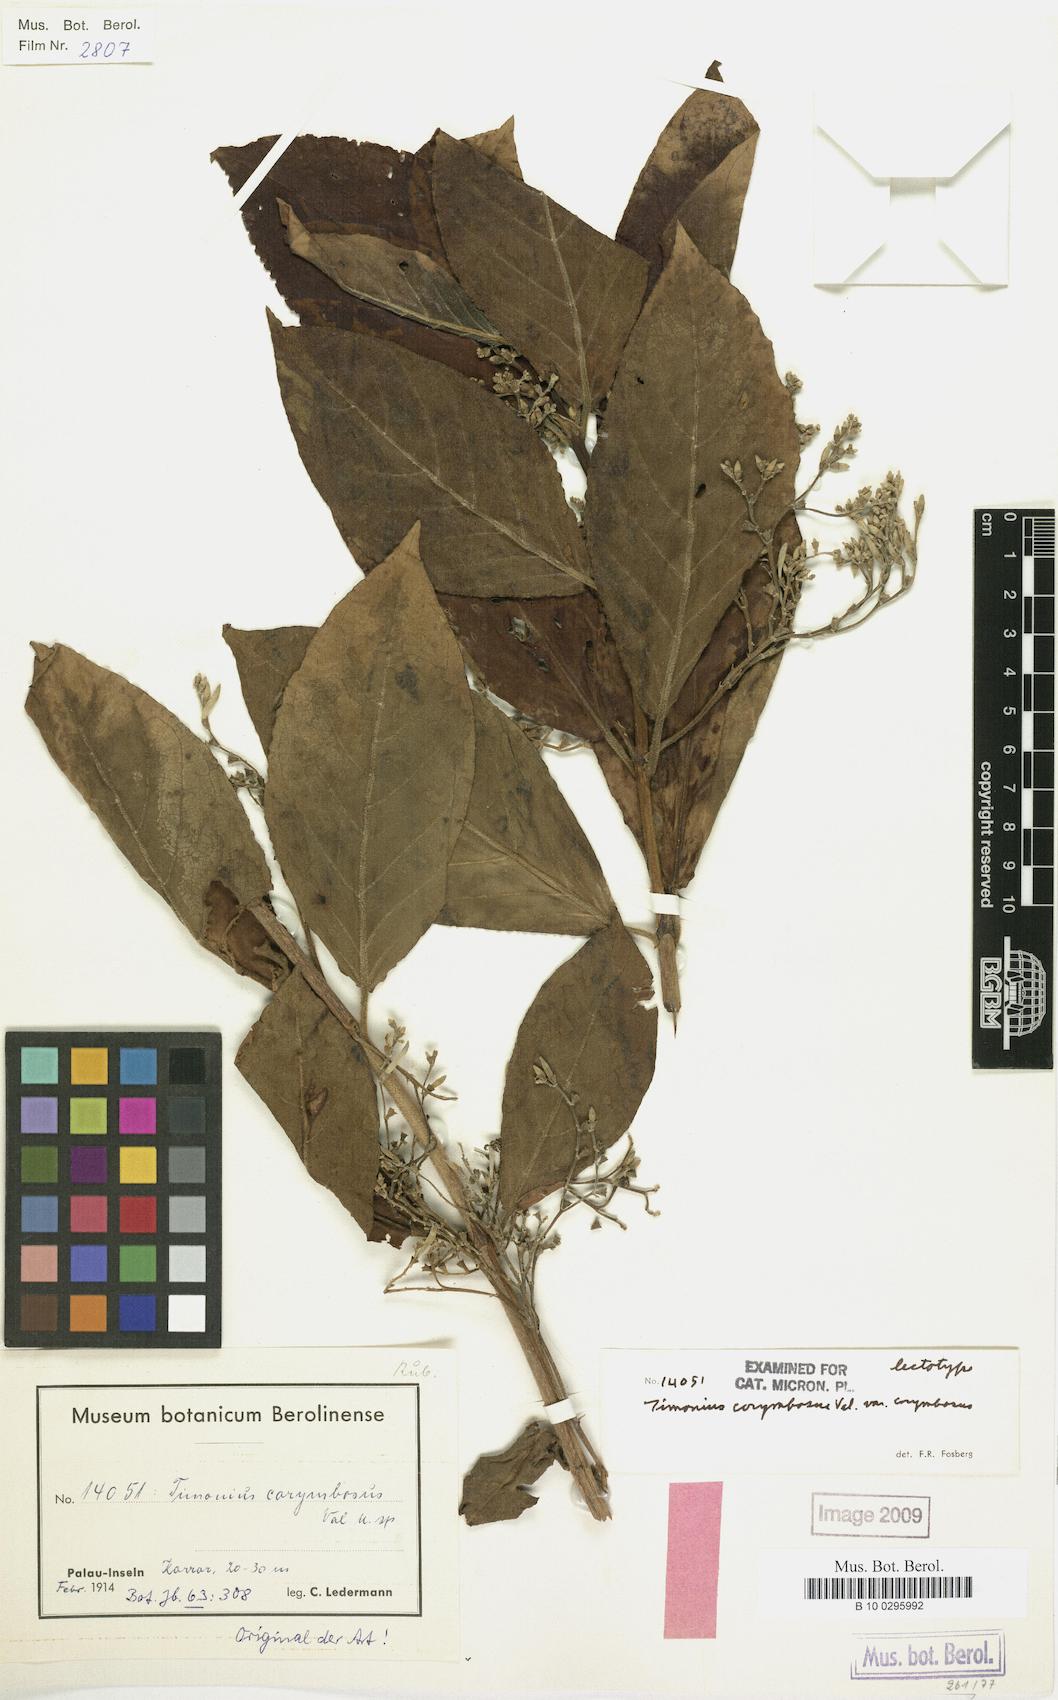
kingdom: Plantae
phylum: Tracheophyta
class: Magnoliopsida
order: Gentianales
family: Rubiaceae
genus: Timonius
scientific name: Timonius corymbosus
